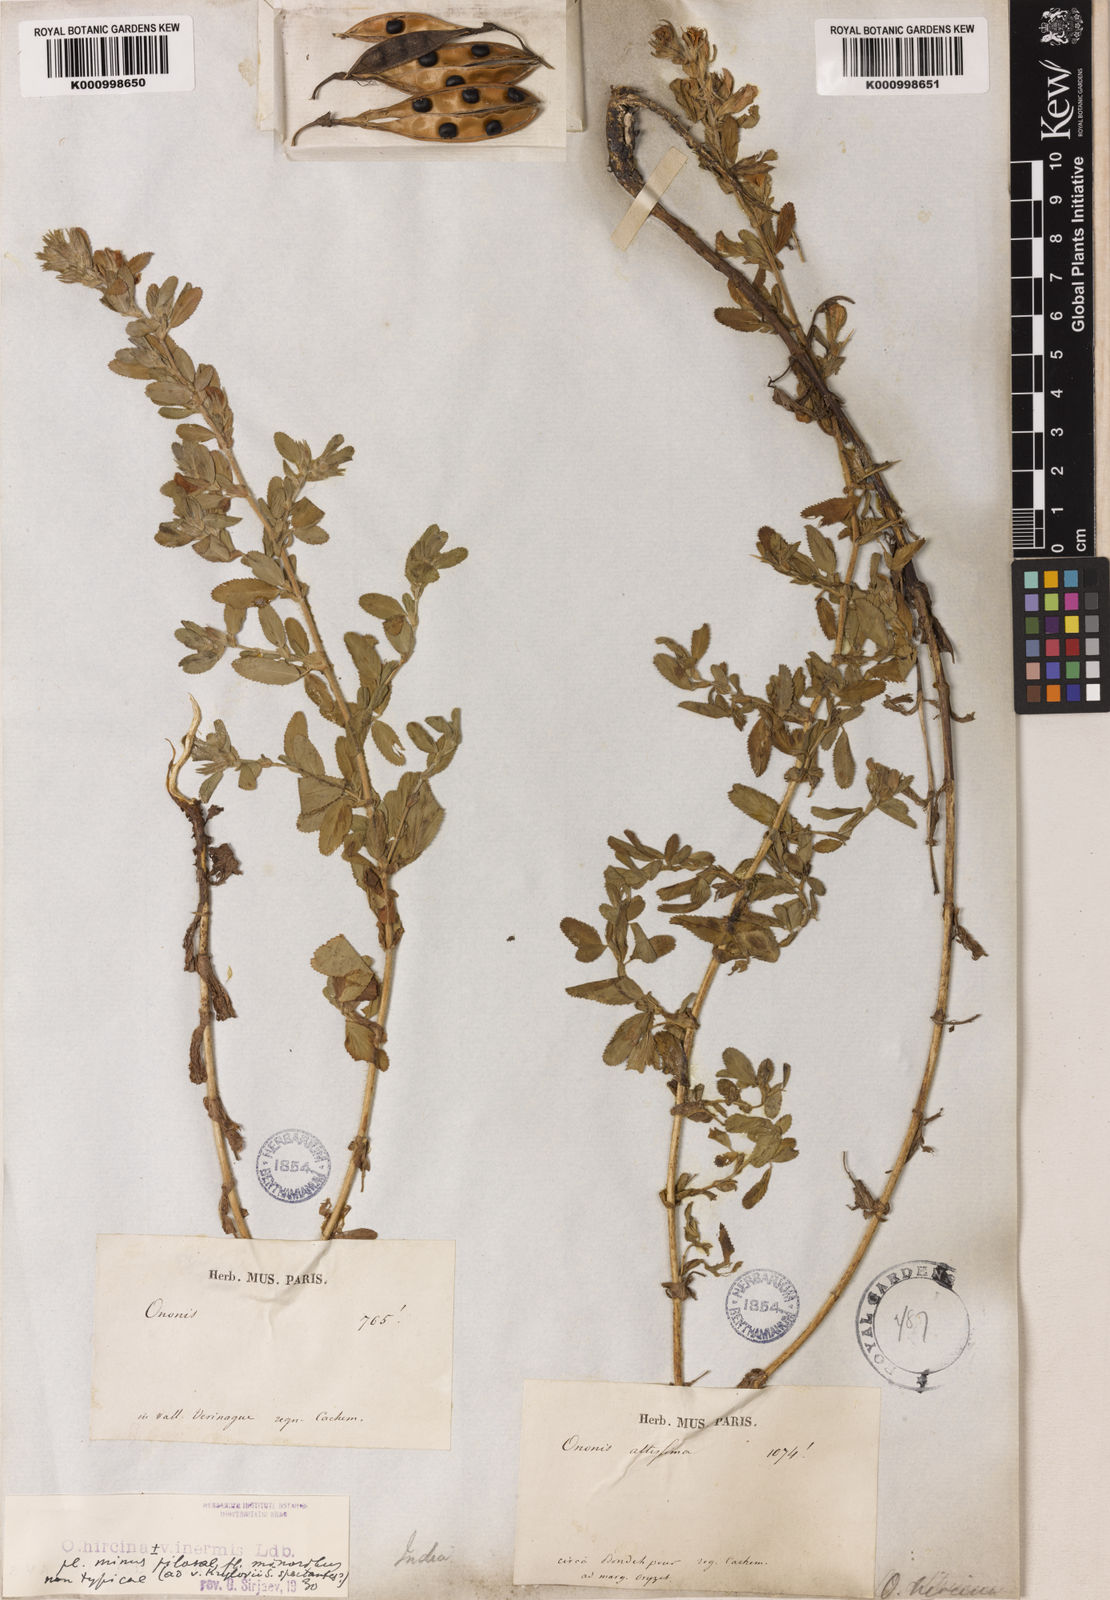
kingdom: Plantae
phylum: Tracheophyta
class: Magnoliopsida
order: Fabales
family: Fabaceae
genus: Ononis
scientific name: Ononis arvensis
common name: Field restharrow
